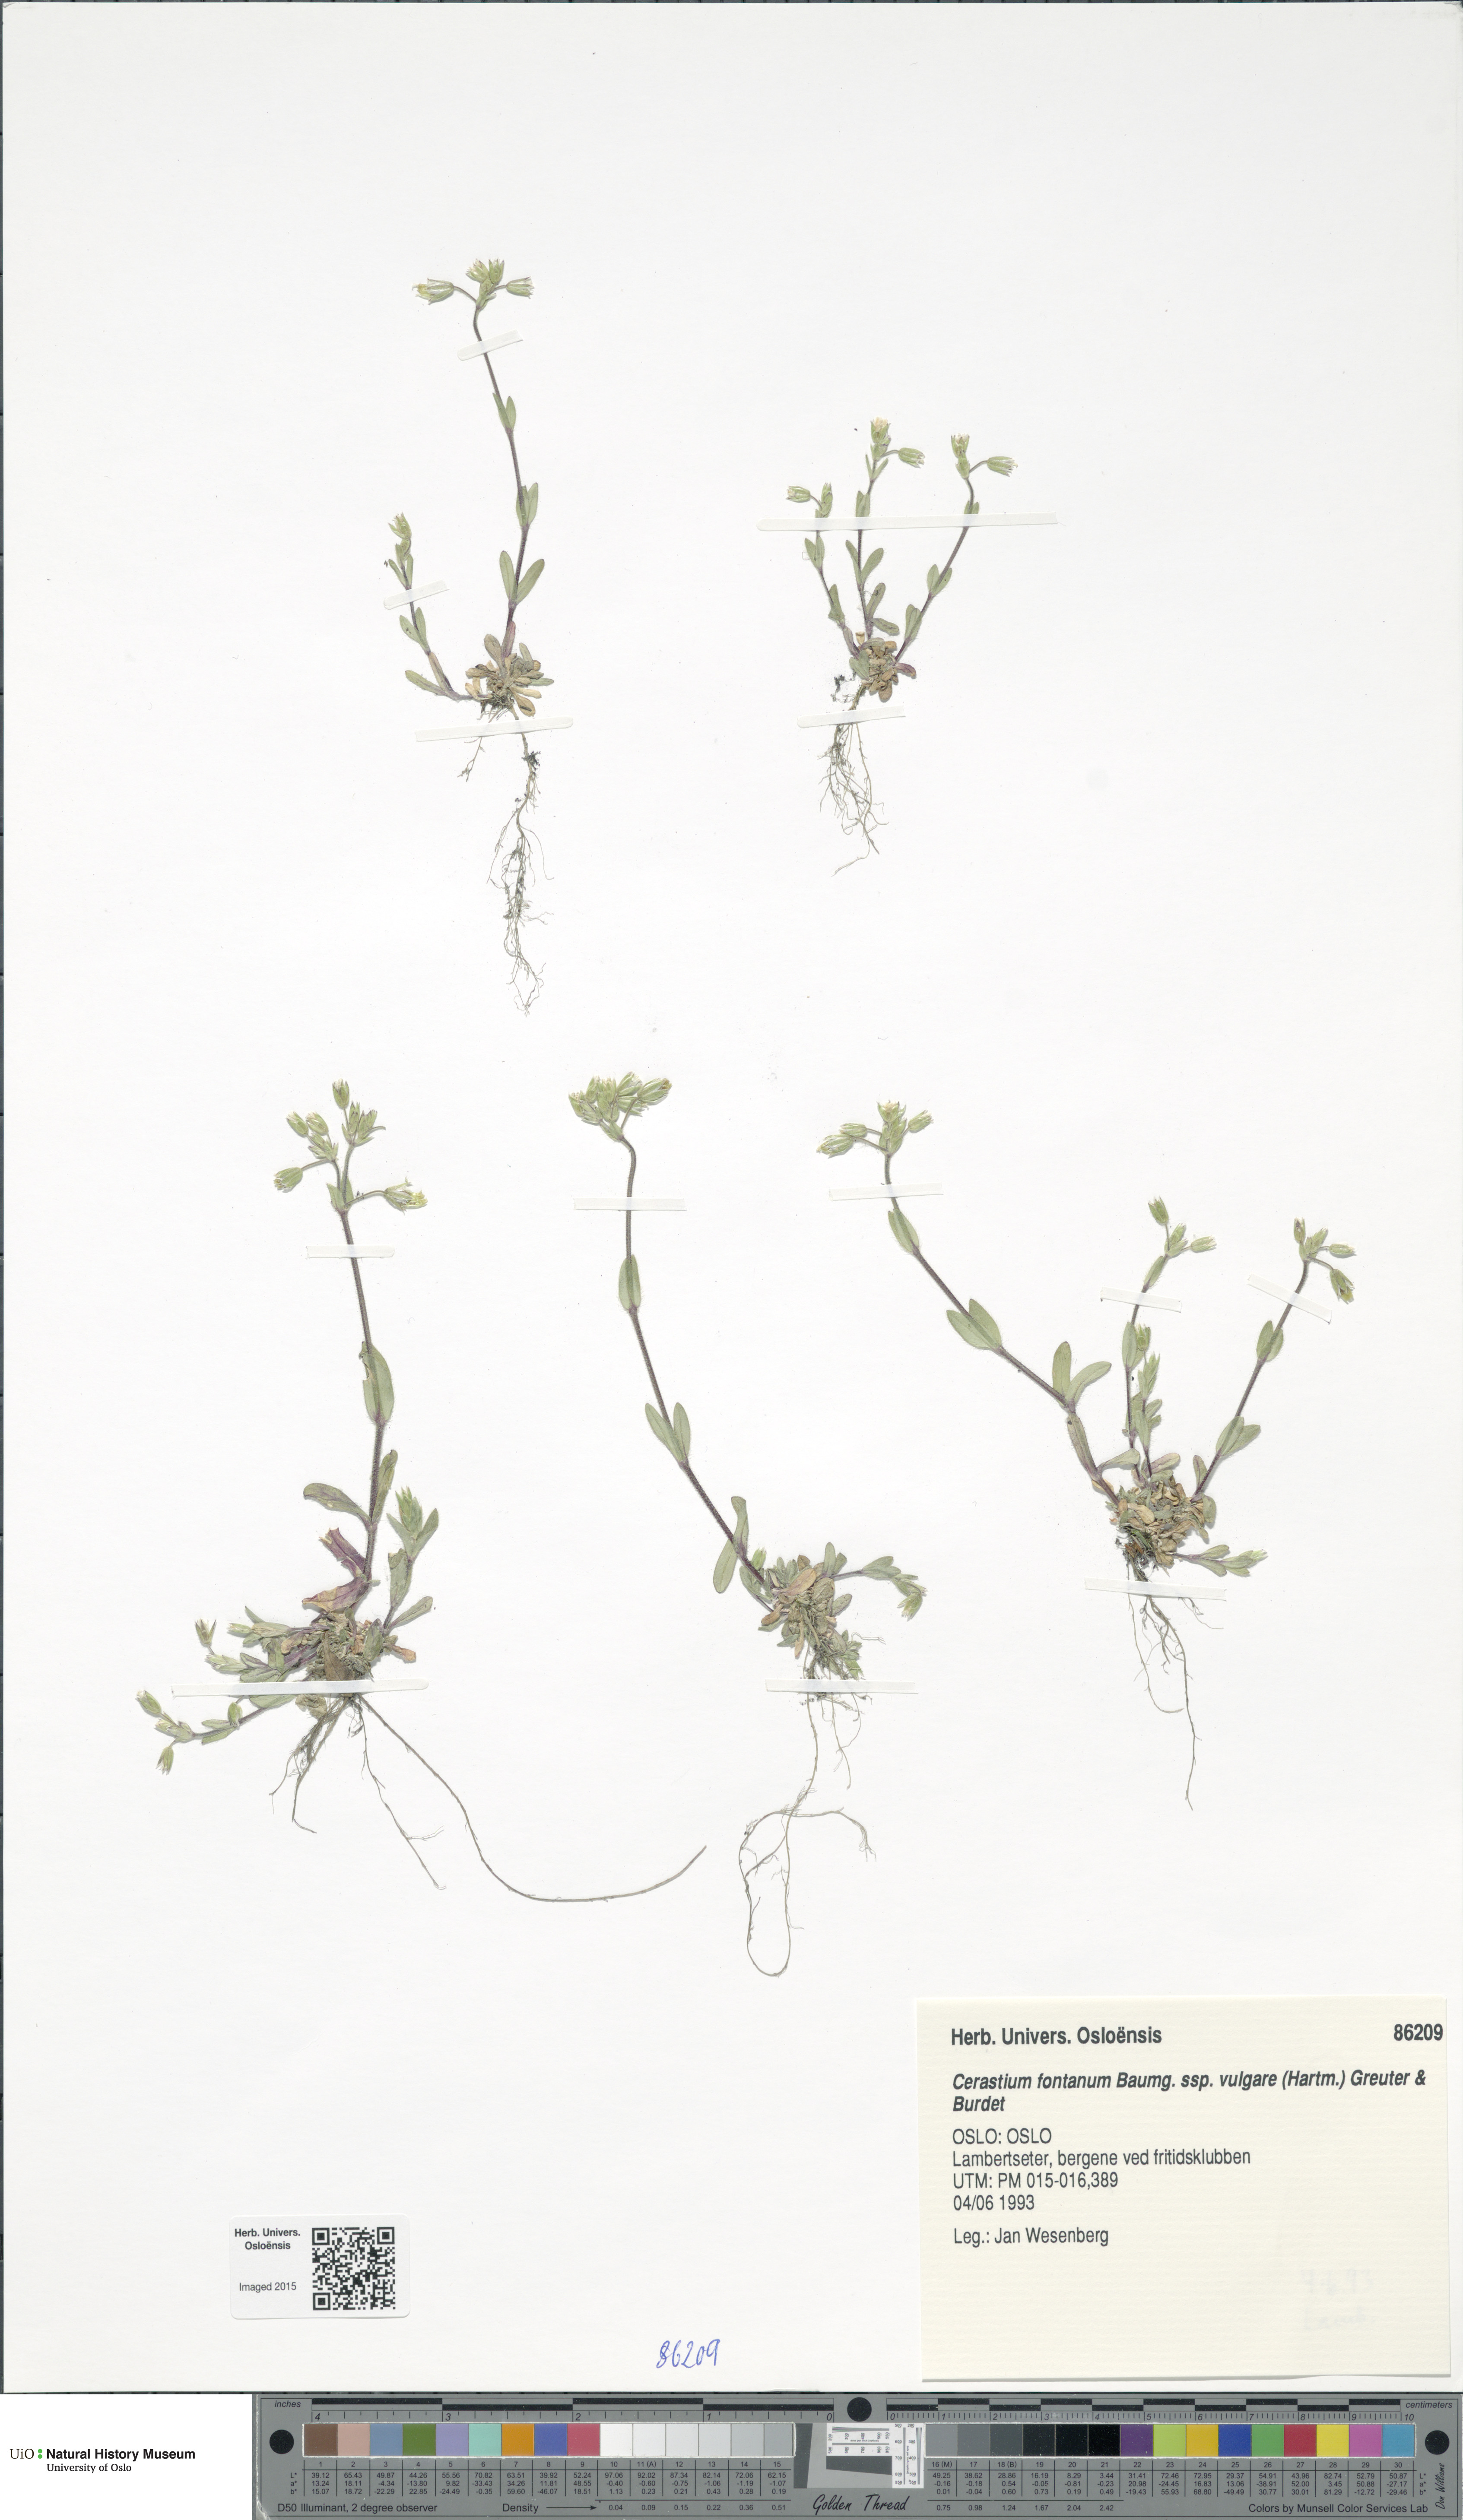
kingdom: Plantae
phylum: Tracheophyta
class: Magnoliopsida
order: Caryophyllales
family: Caryophyllaceae
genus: Cerastium
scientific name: Cerastium holosteoides
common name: Big chickweed
